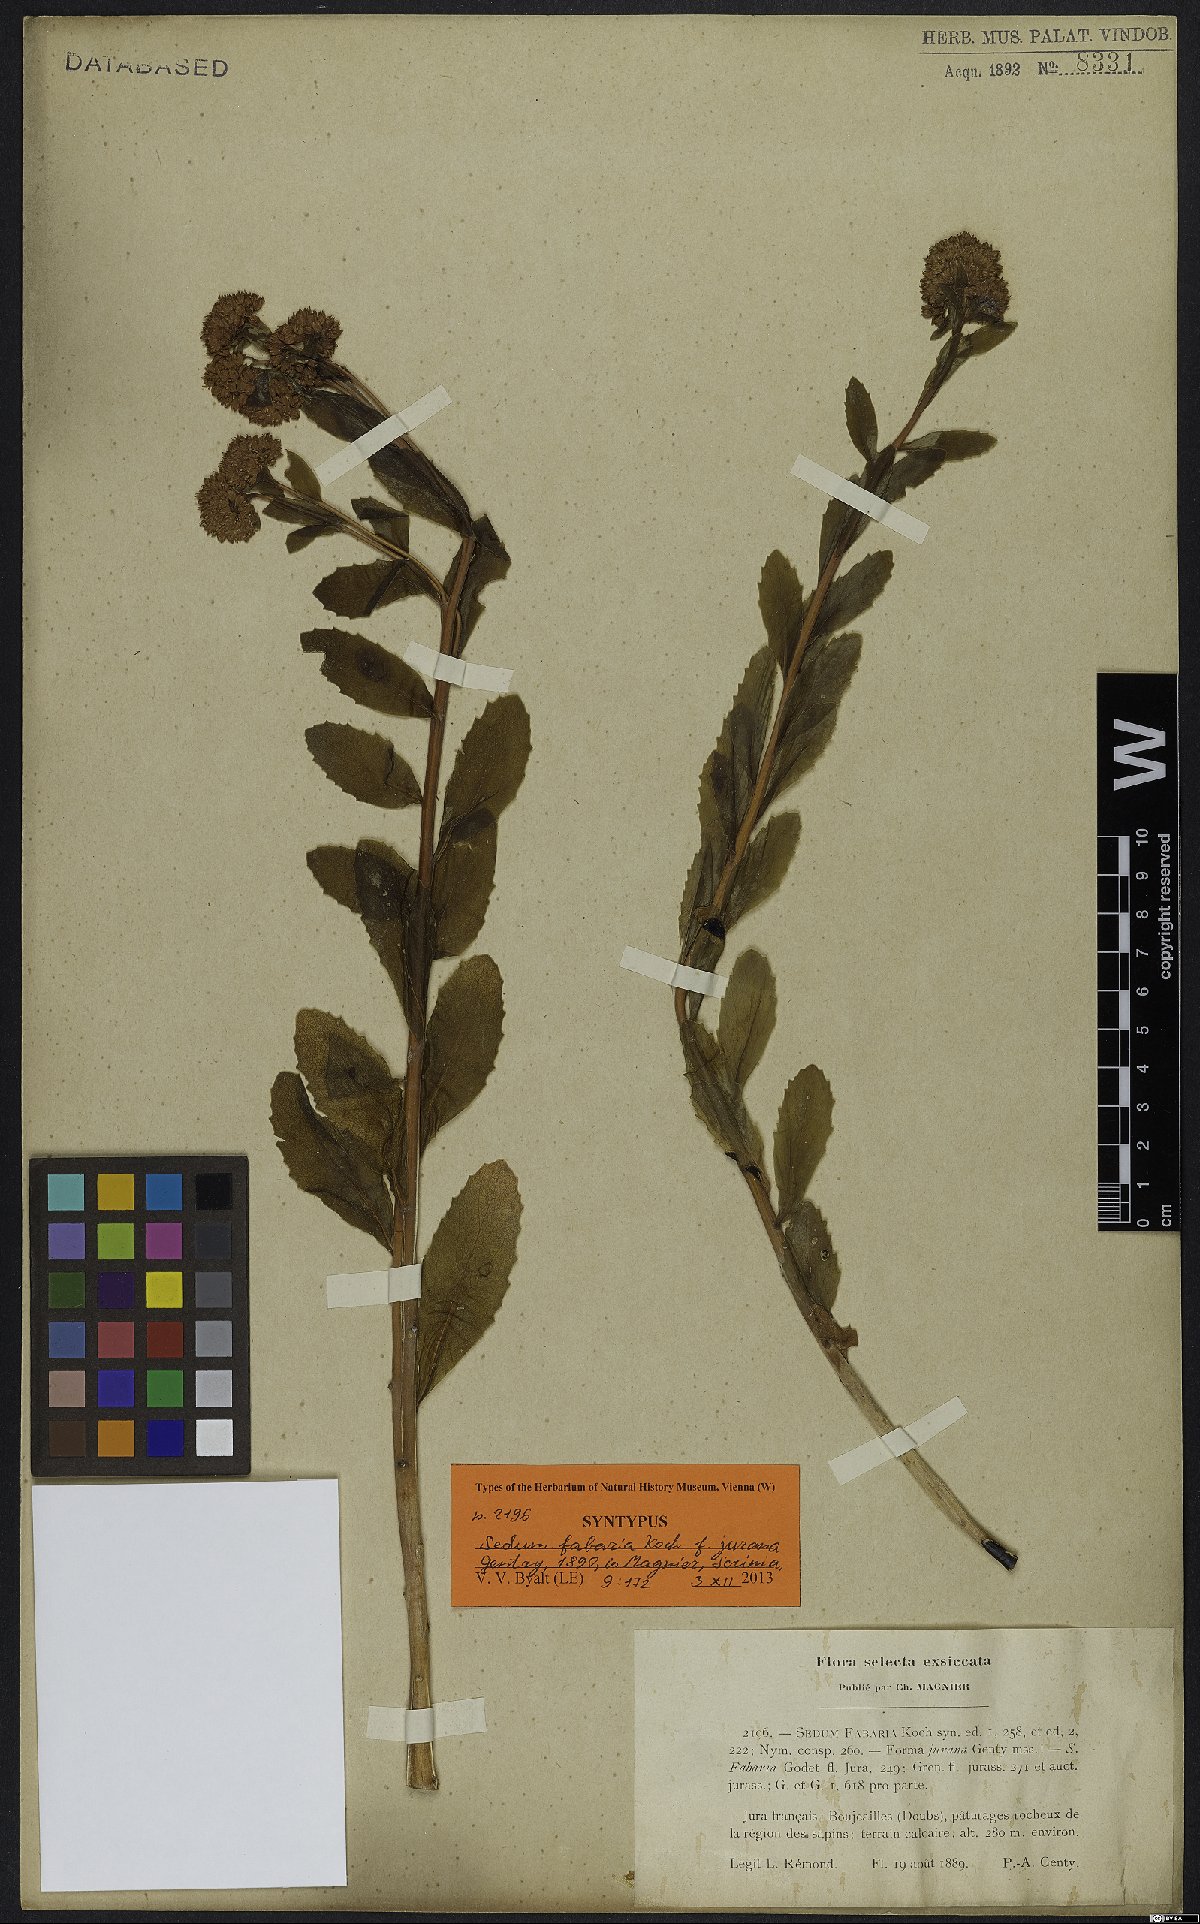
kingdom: Plantae
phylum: Tracheophyta
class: Magnoliopsida
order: Saxifragales
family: Crassulaceae
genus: Sedum
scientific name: Sedum fabaria
